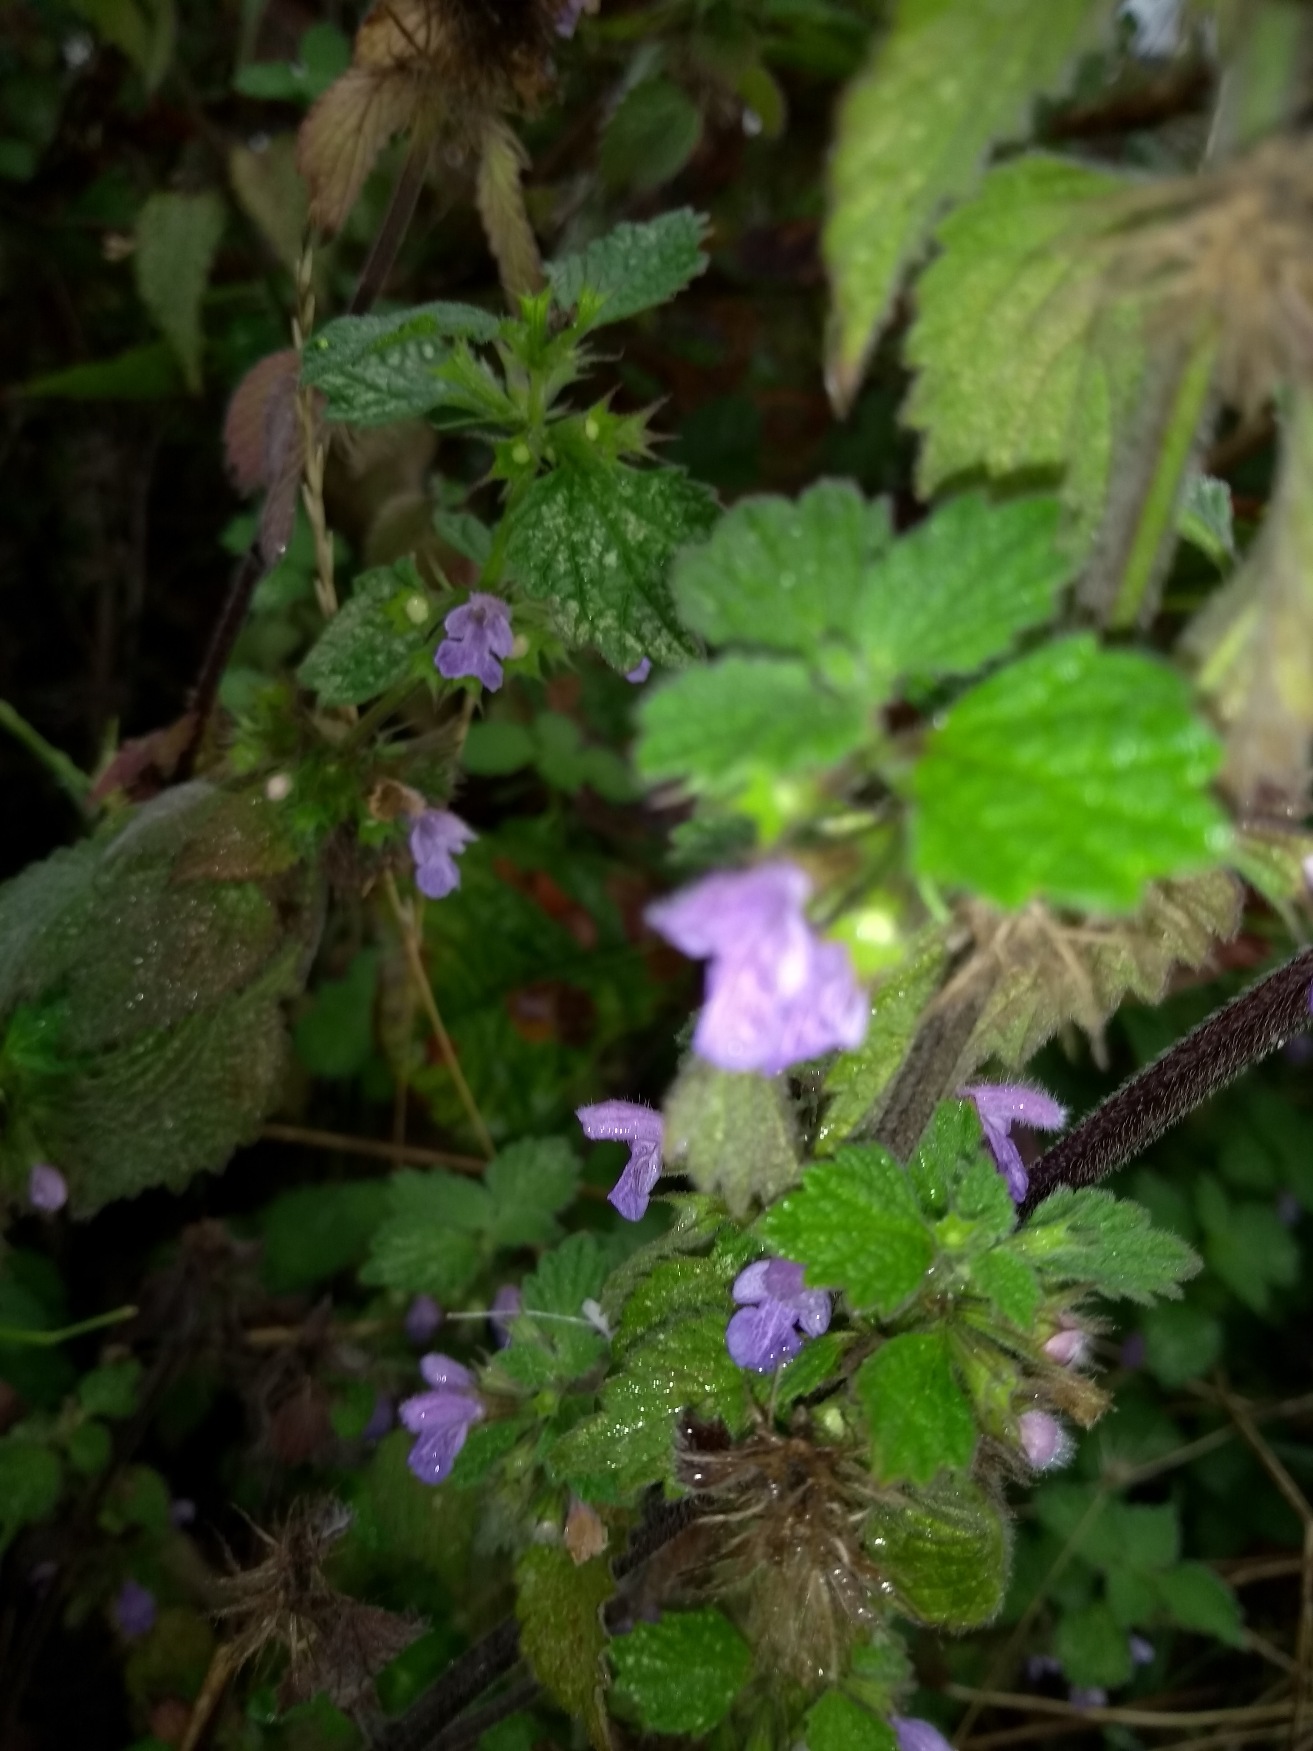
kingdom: Plantae
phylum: Tracheophyta
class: Magnoliopsida
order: Lamiales
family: Lamiaceae
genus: Ballota
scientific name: Ballota nigra
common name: Rød tandbæger
